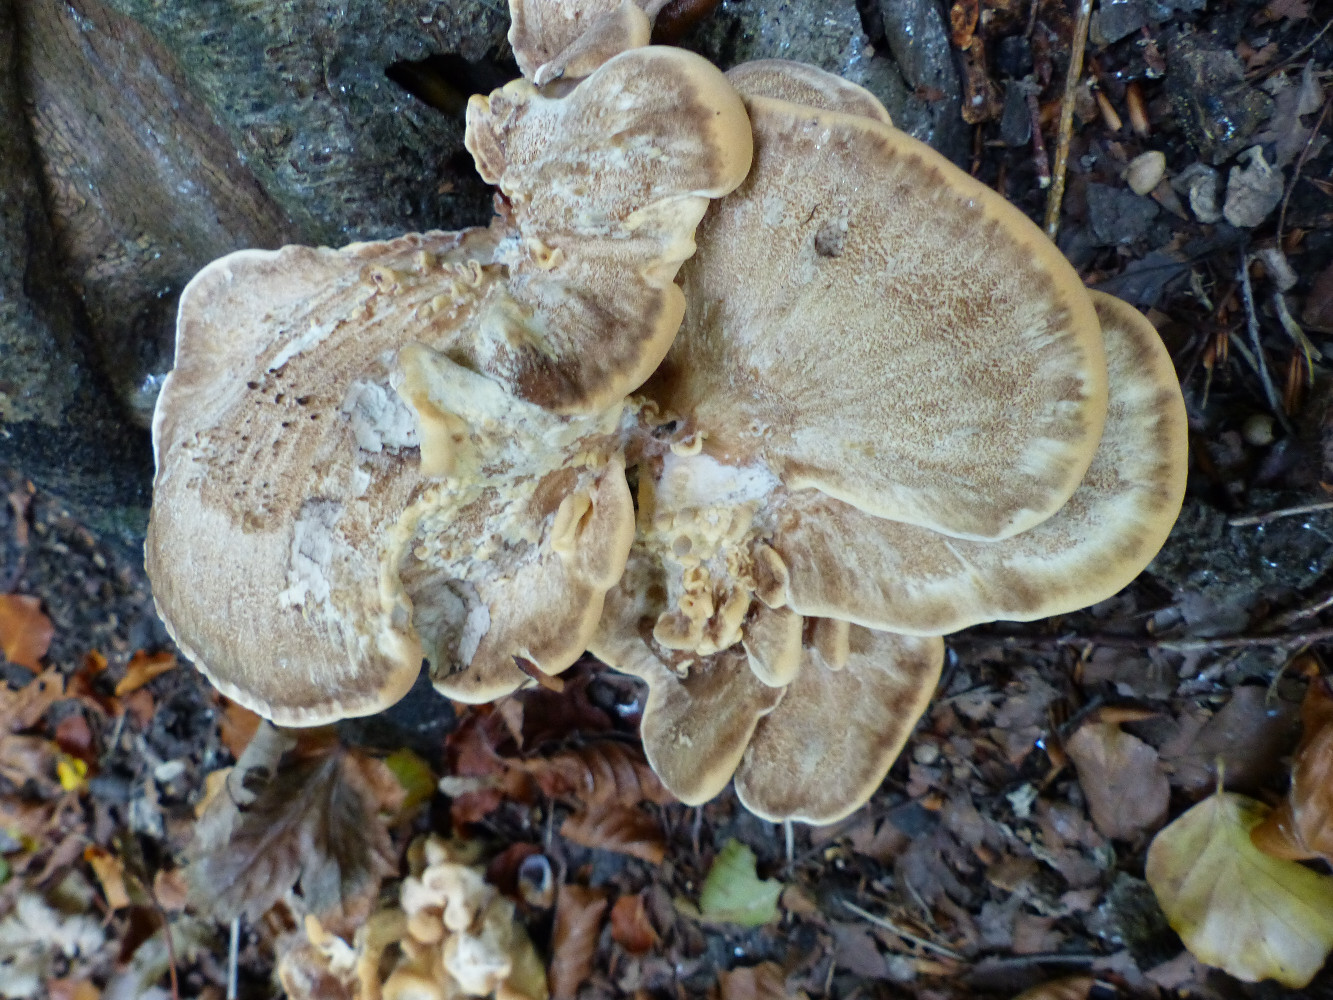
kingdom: Fungi
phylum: Basidiomycota
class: Agaricomycetes
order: Polyporales
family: Meripilaceae
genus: Meripilus
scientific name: Meripilus giganteus
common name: kæmpeporesvamp
